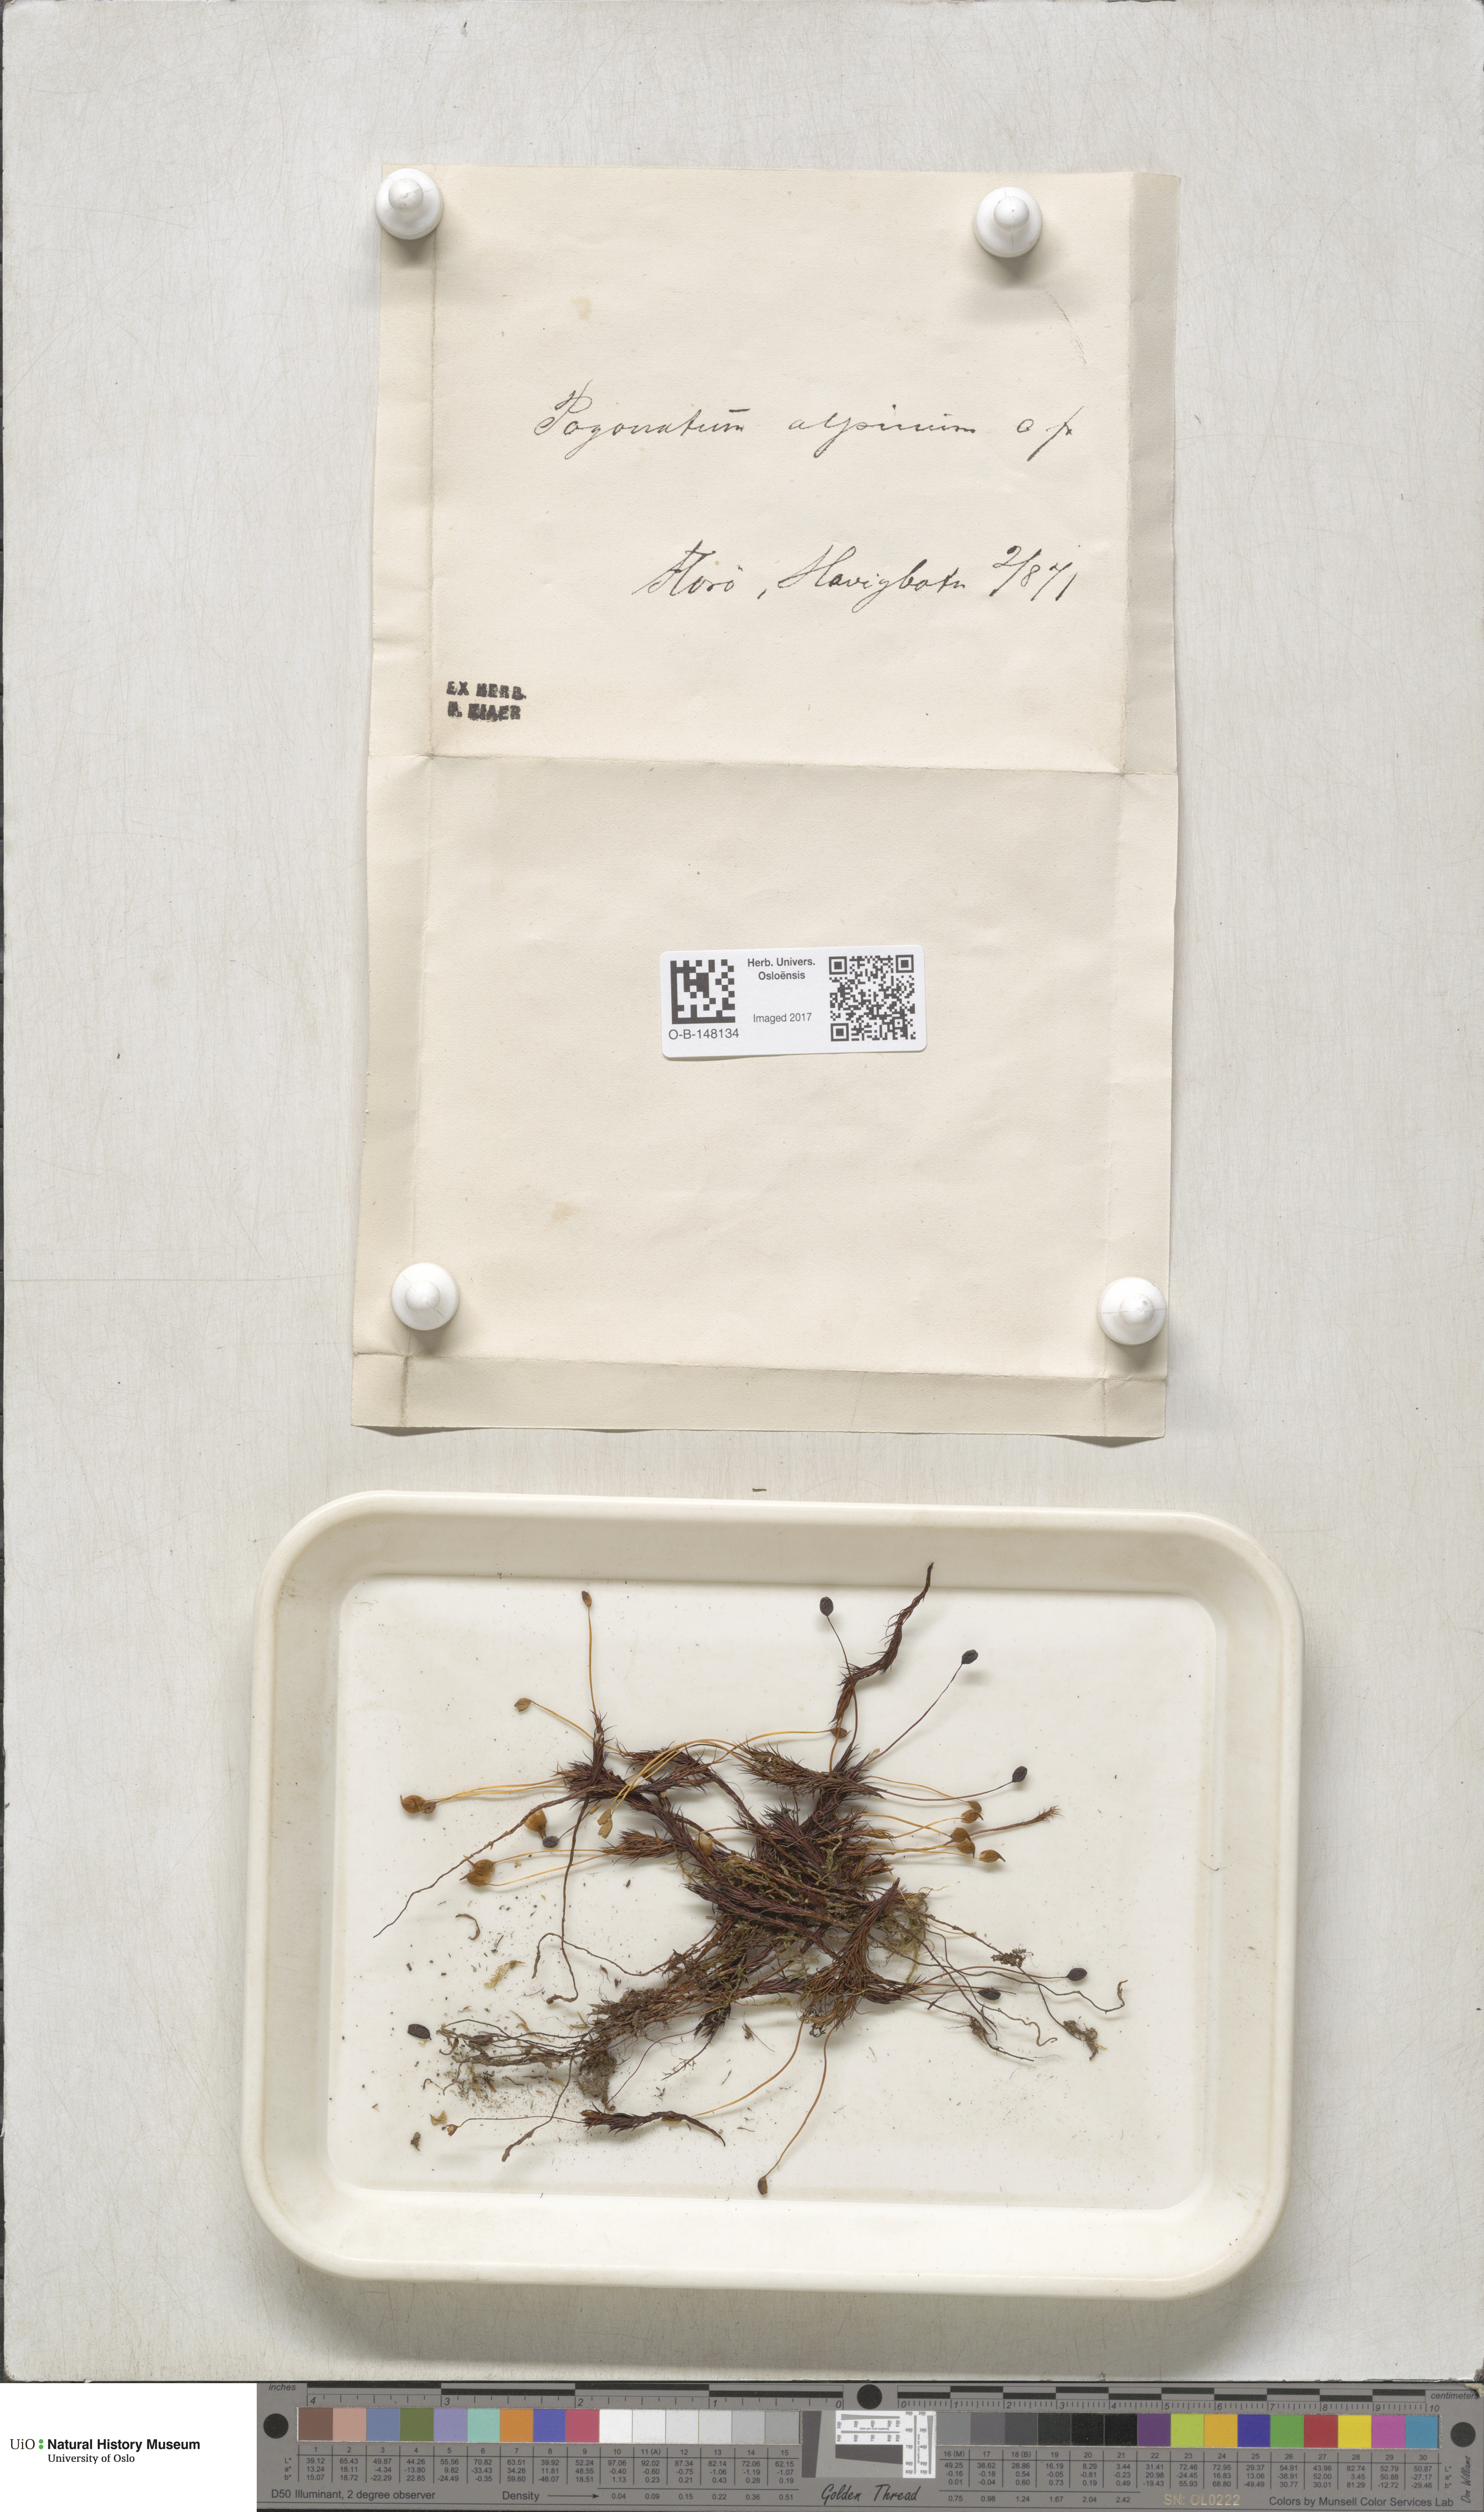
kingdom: Plantae
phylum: Bryophyta
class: Polytrichopsida
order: Polytrichales
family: Polytrichaceae
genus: Polytrichastrum
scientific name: Polytrichastrum alpinum
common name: Alpine haircap
